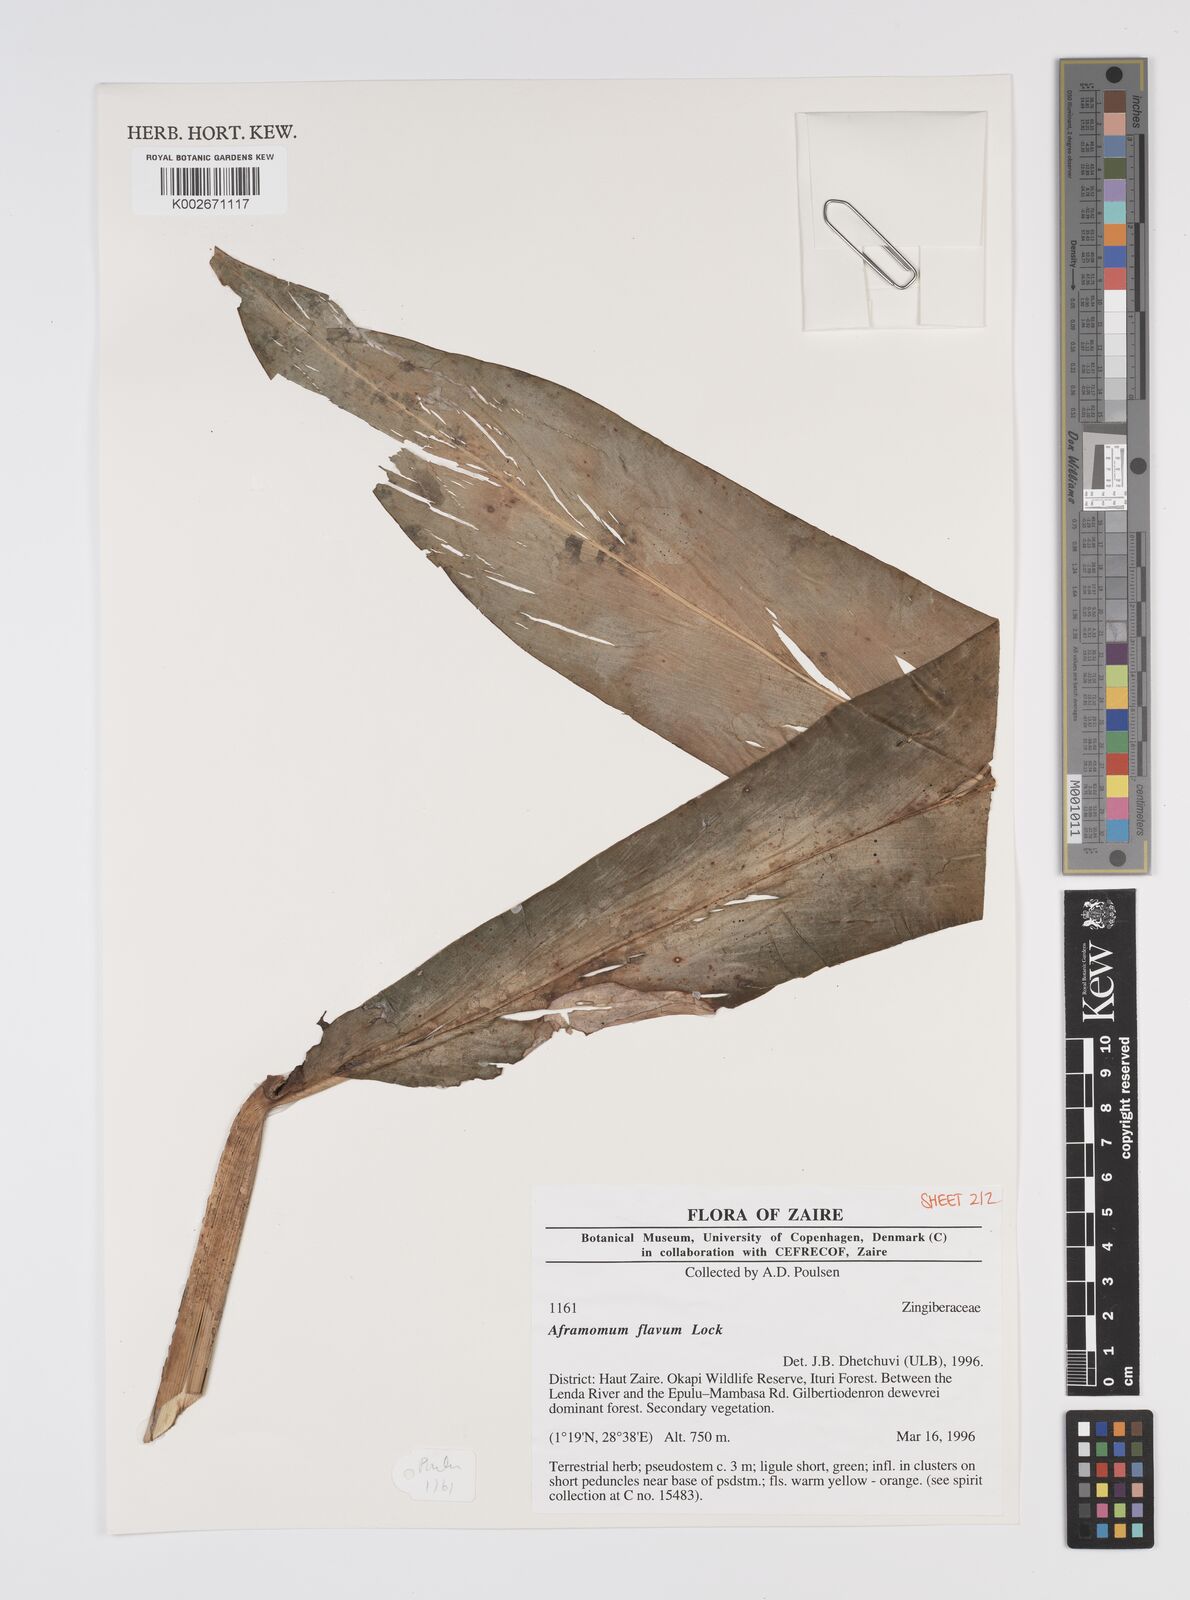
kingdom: Plantae
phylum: Tracheophyta
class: Liliopsida
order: Zingiberales
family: Zingiberaceae
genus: Aframomum
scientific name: Aframomum daniellii
